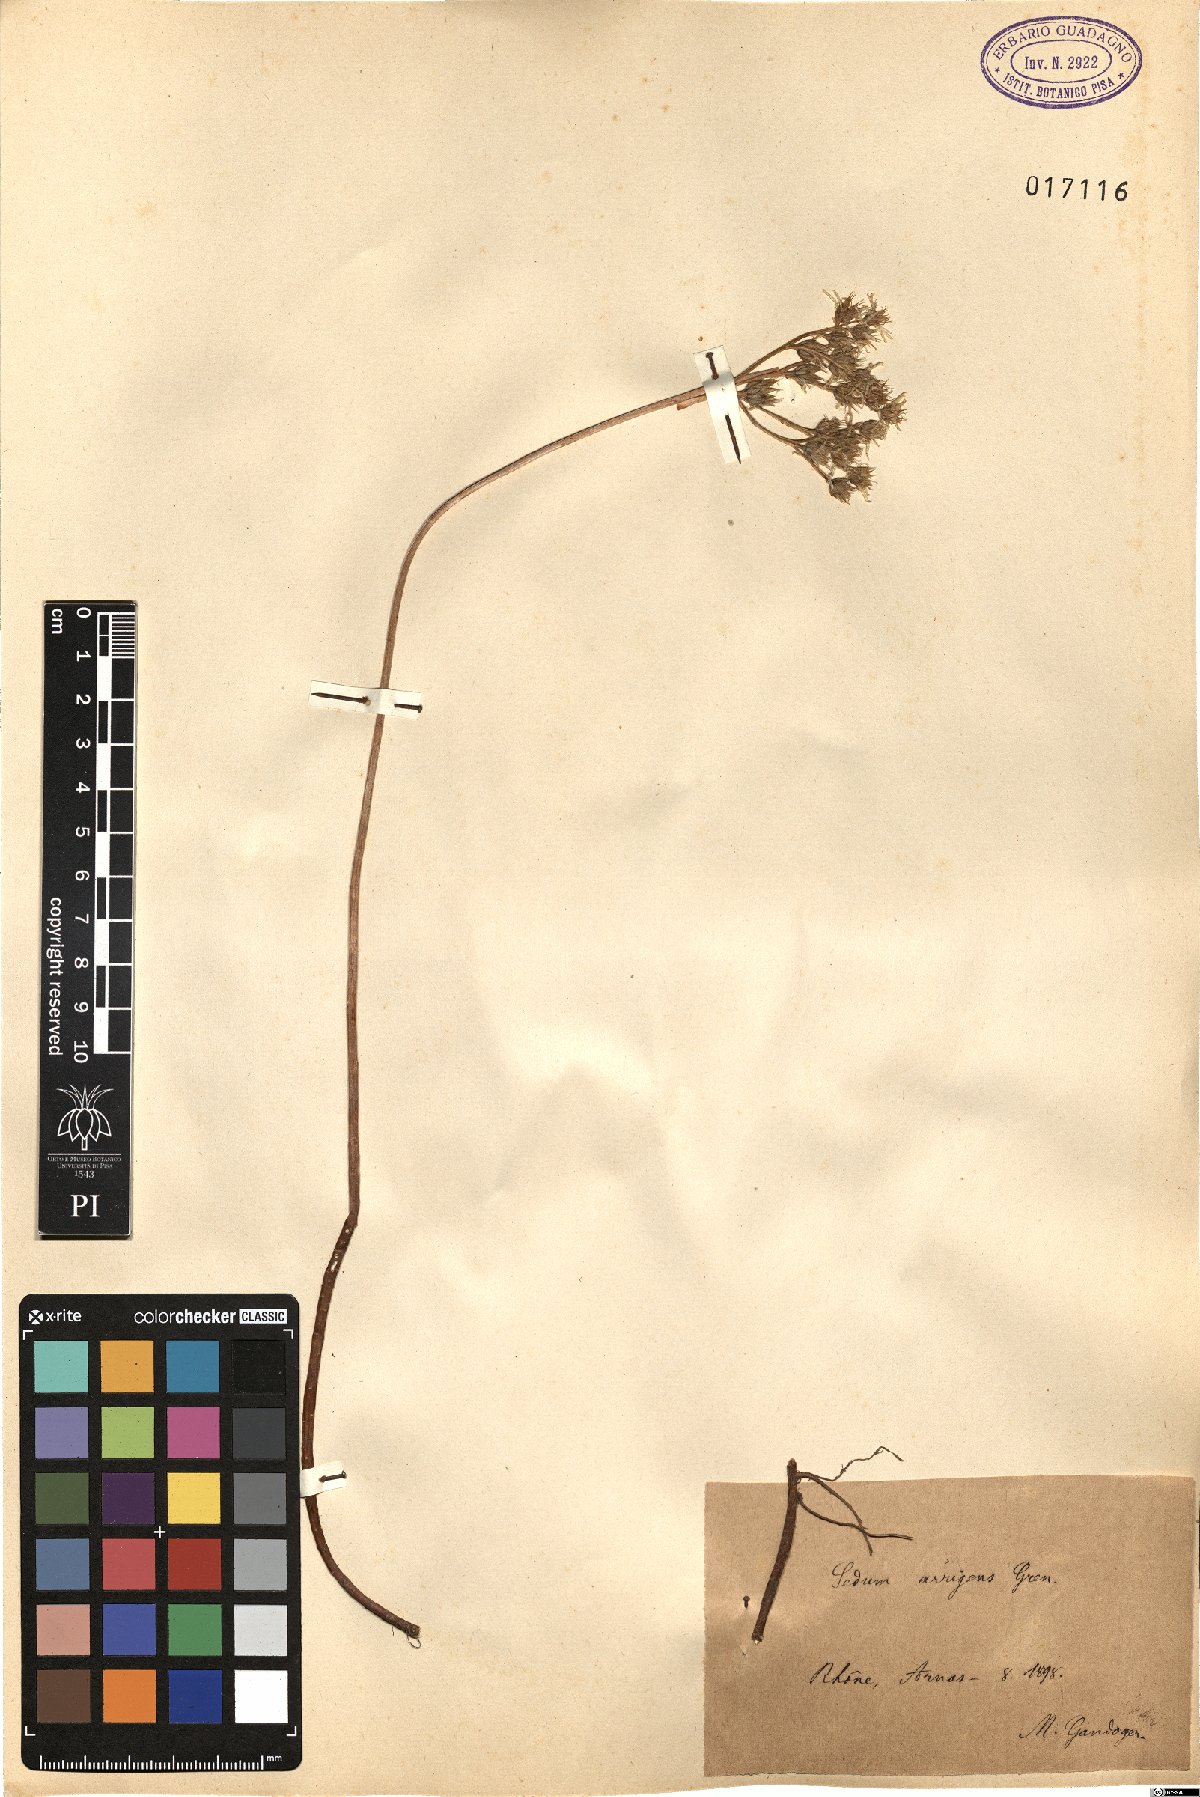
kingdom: Plantae
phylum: Tracheophyta
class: Magnoliopsida
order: Saxifragales
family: Crassulaceae
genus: Petrosedum
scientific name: Petrosedum rupestre
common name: Jenny's stonecrop
